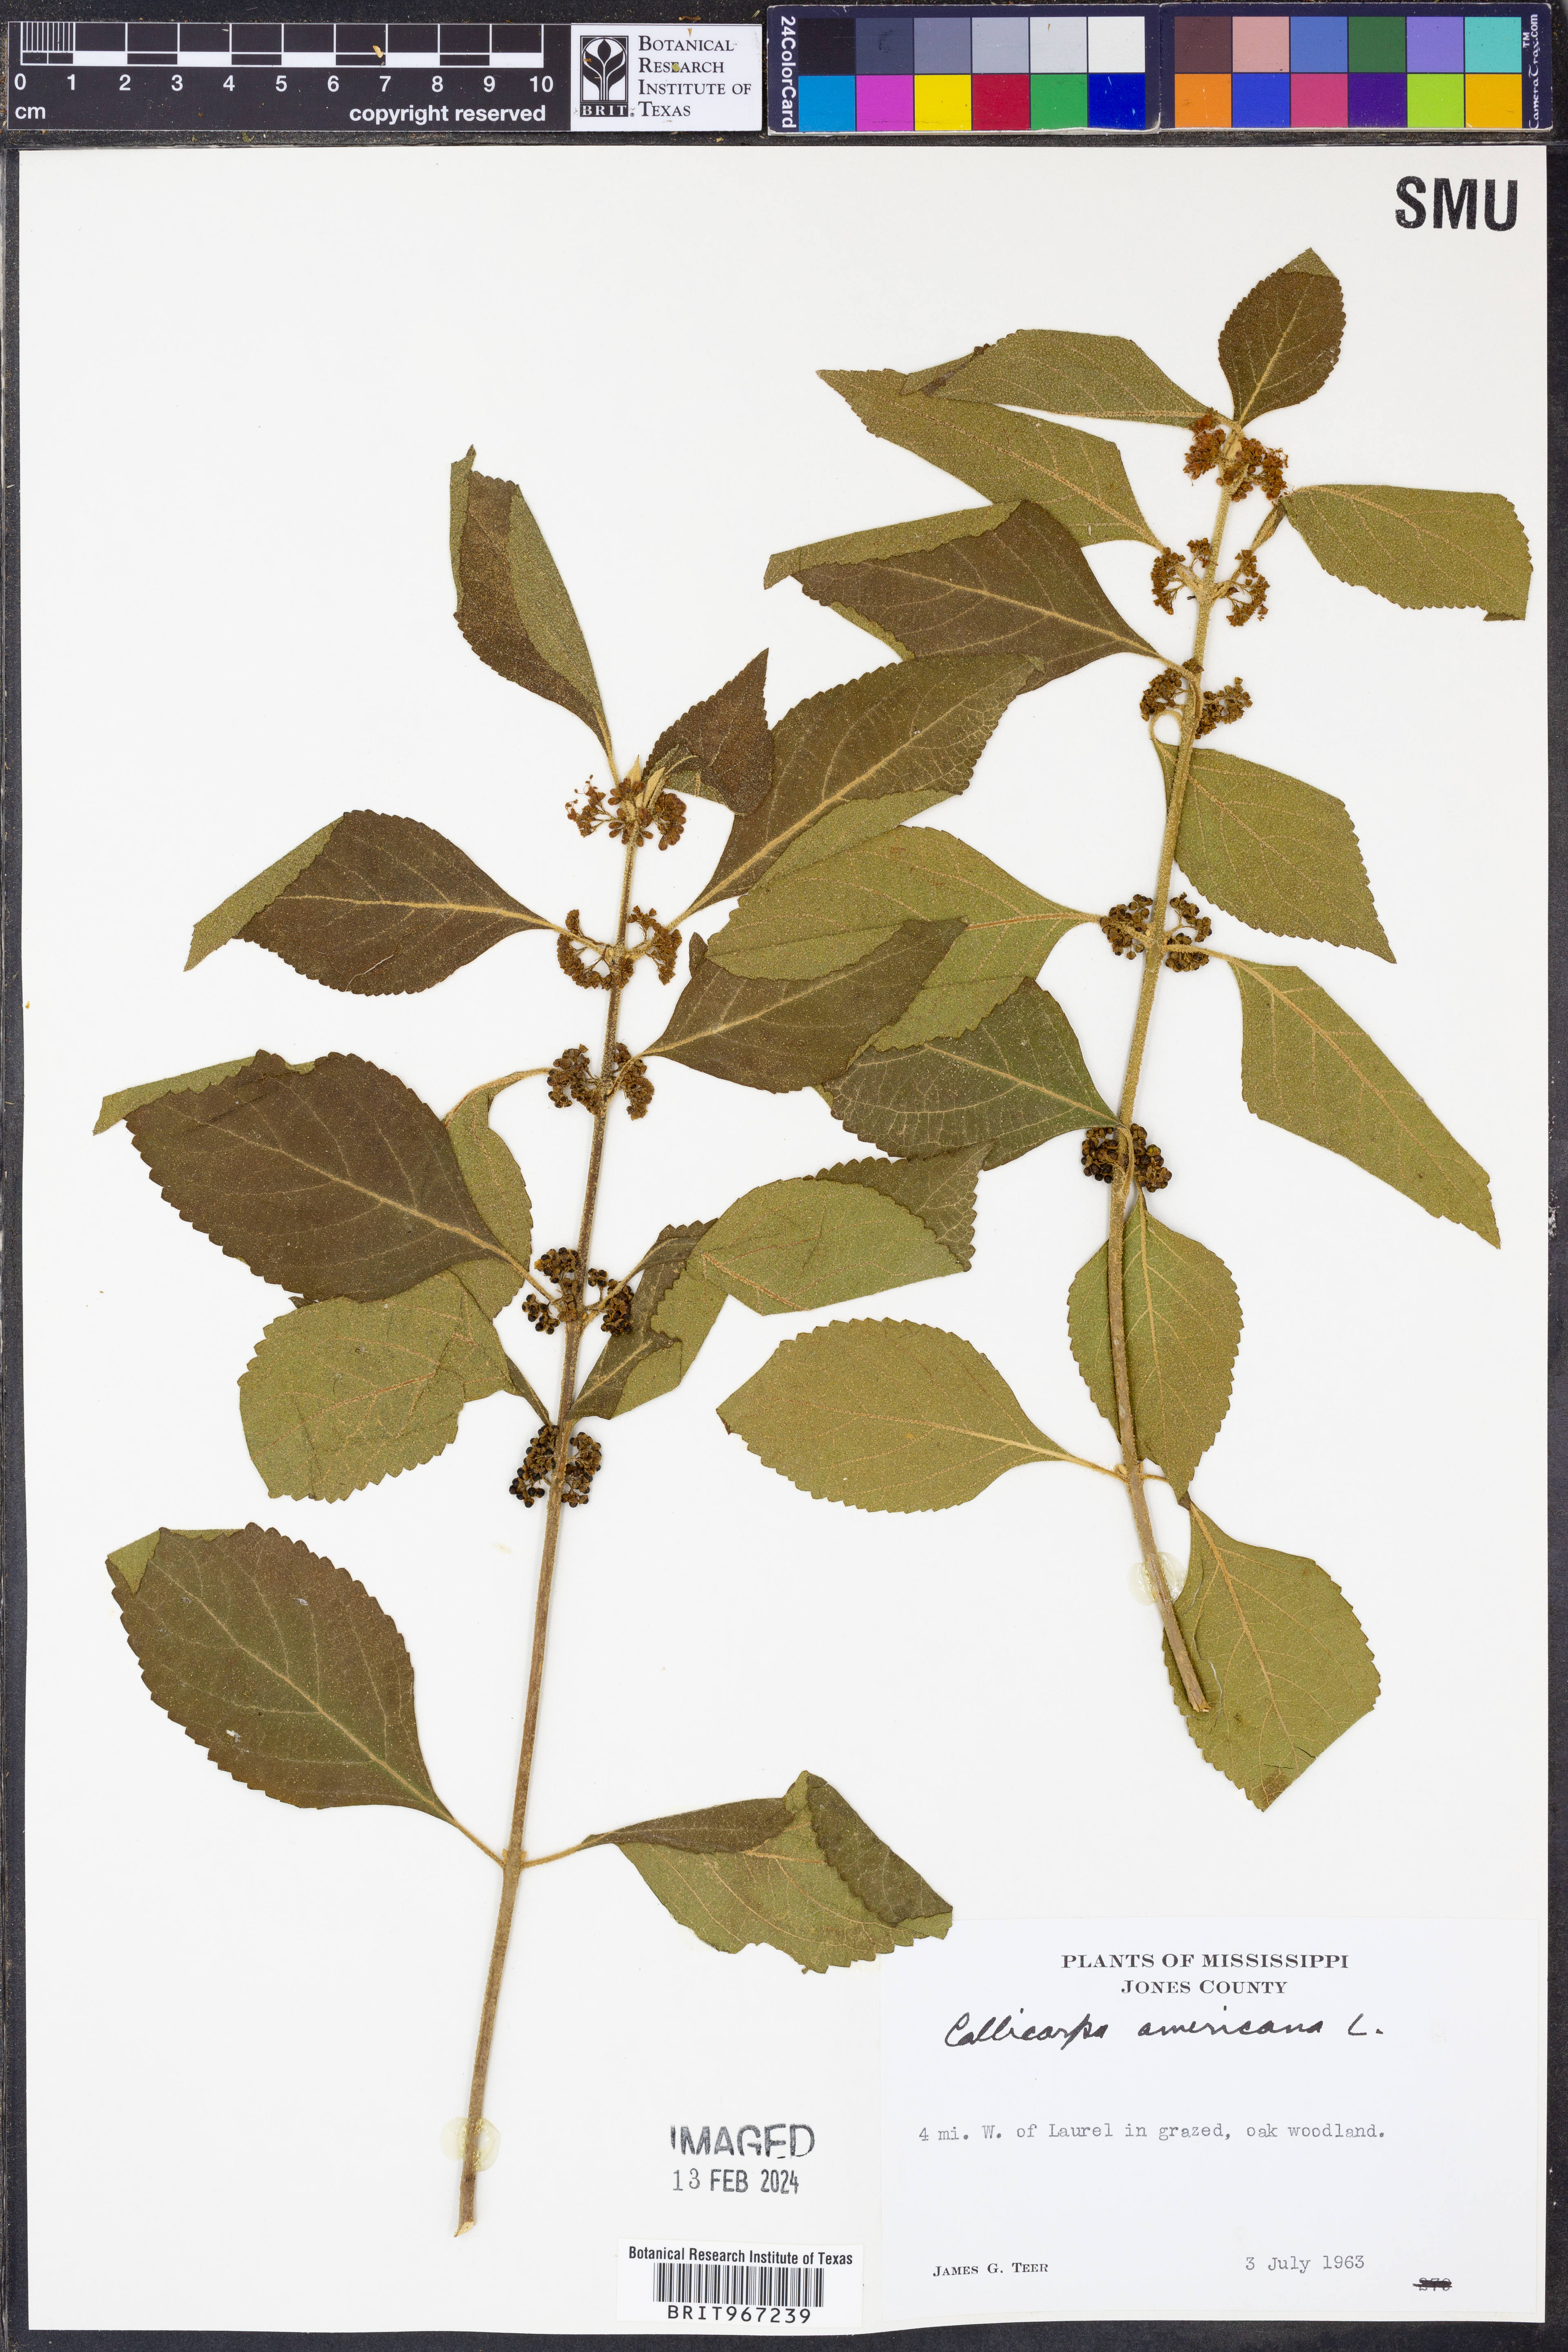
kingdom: Plantae
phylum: Tracheophyta
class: Magnoliopsida
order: Lamiales
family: Lamiaceae
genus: Callicarpa
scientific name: Callicarpa americana
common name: American beautyberry
